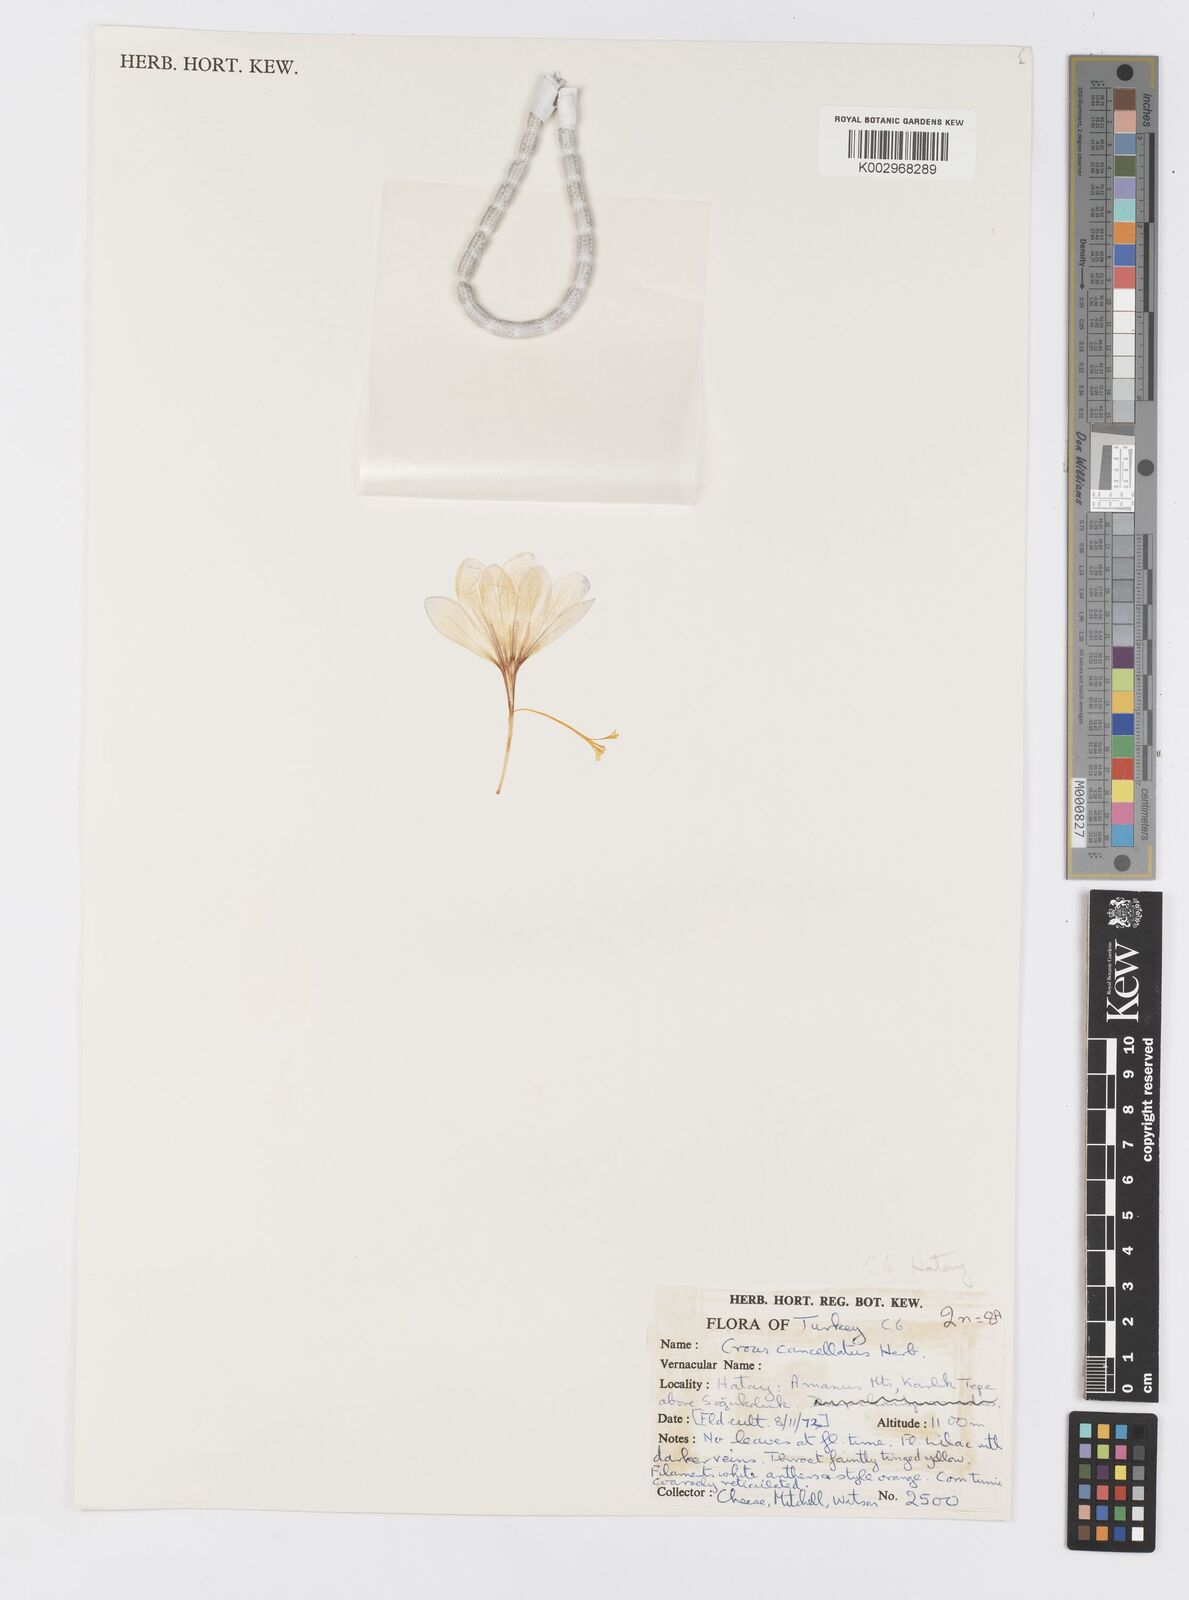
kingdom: Plantae
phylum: Tracheophyta
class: Liliopsida
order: Asparagales
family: Iridaceae
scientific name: Iridaceae
